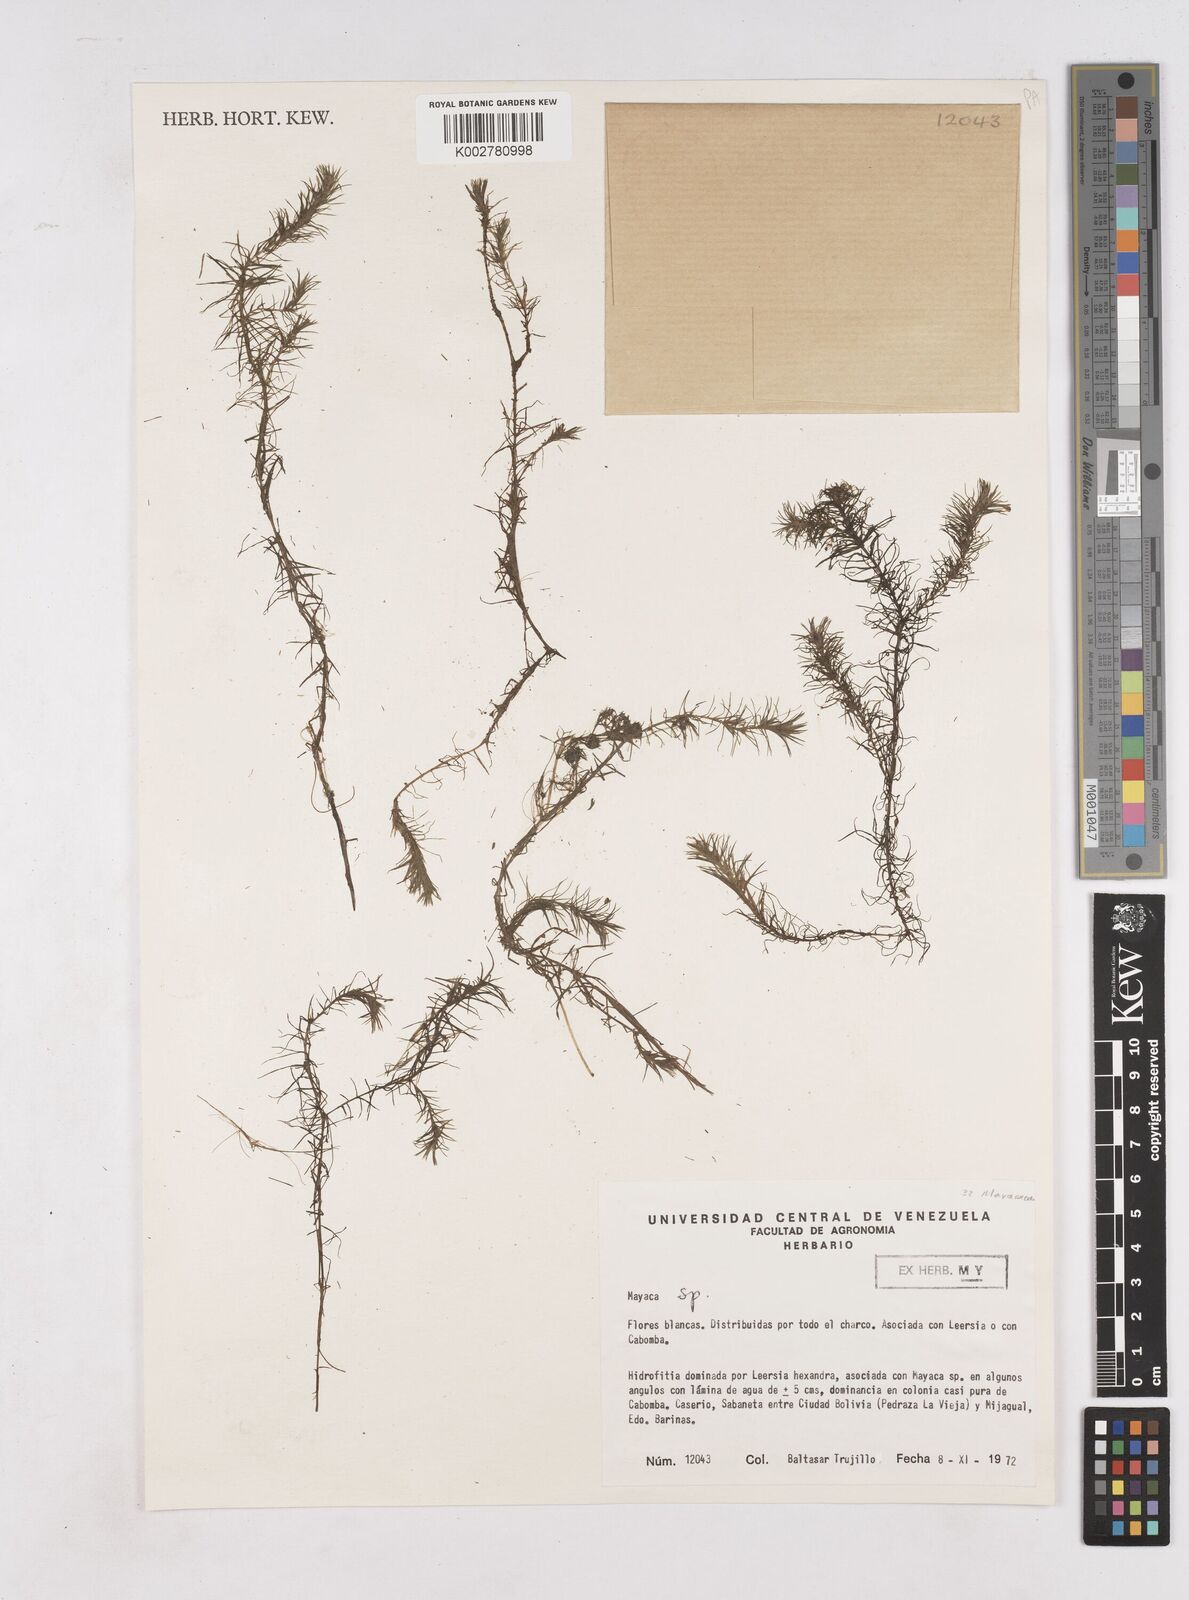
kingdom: Plantae
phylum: Tracheophyta
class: Liliopsida
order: Poales
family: Mayacaceae
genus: Mayaca
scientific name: Mayaca
